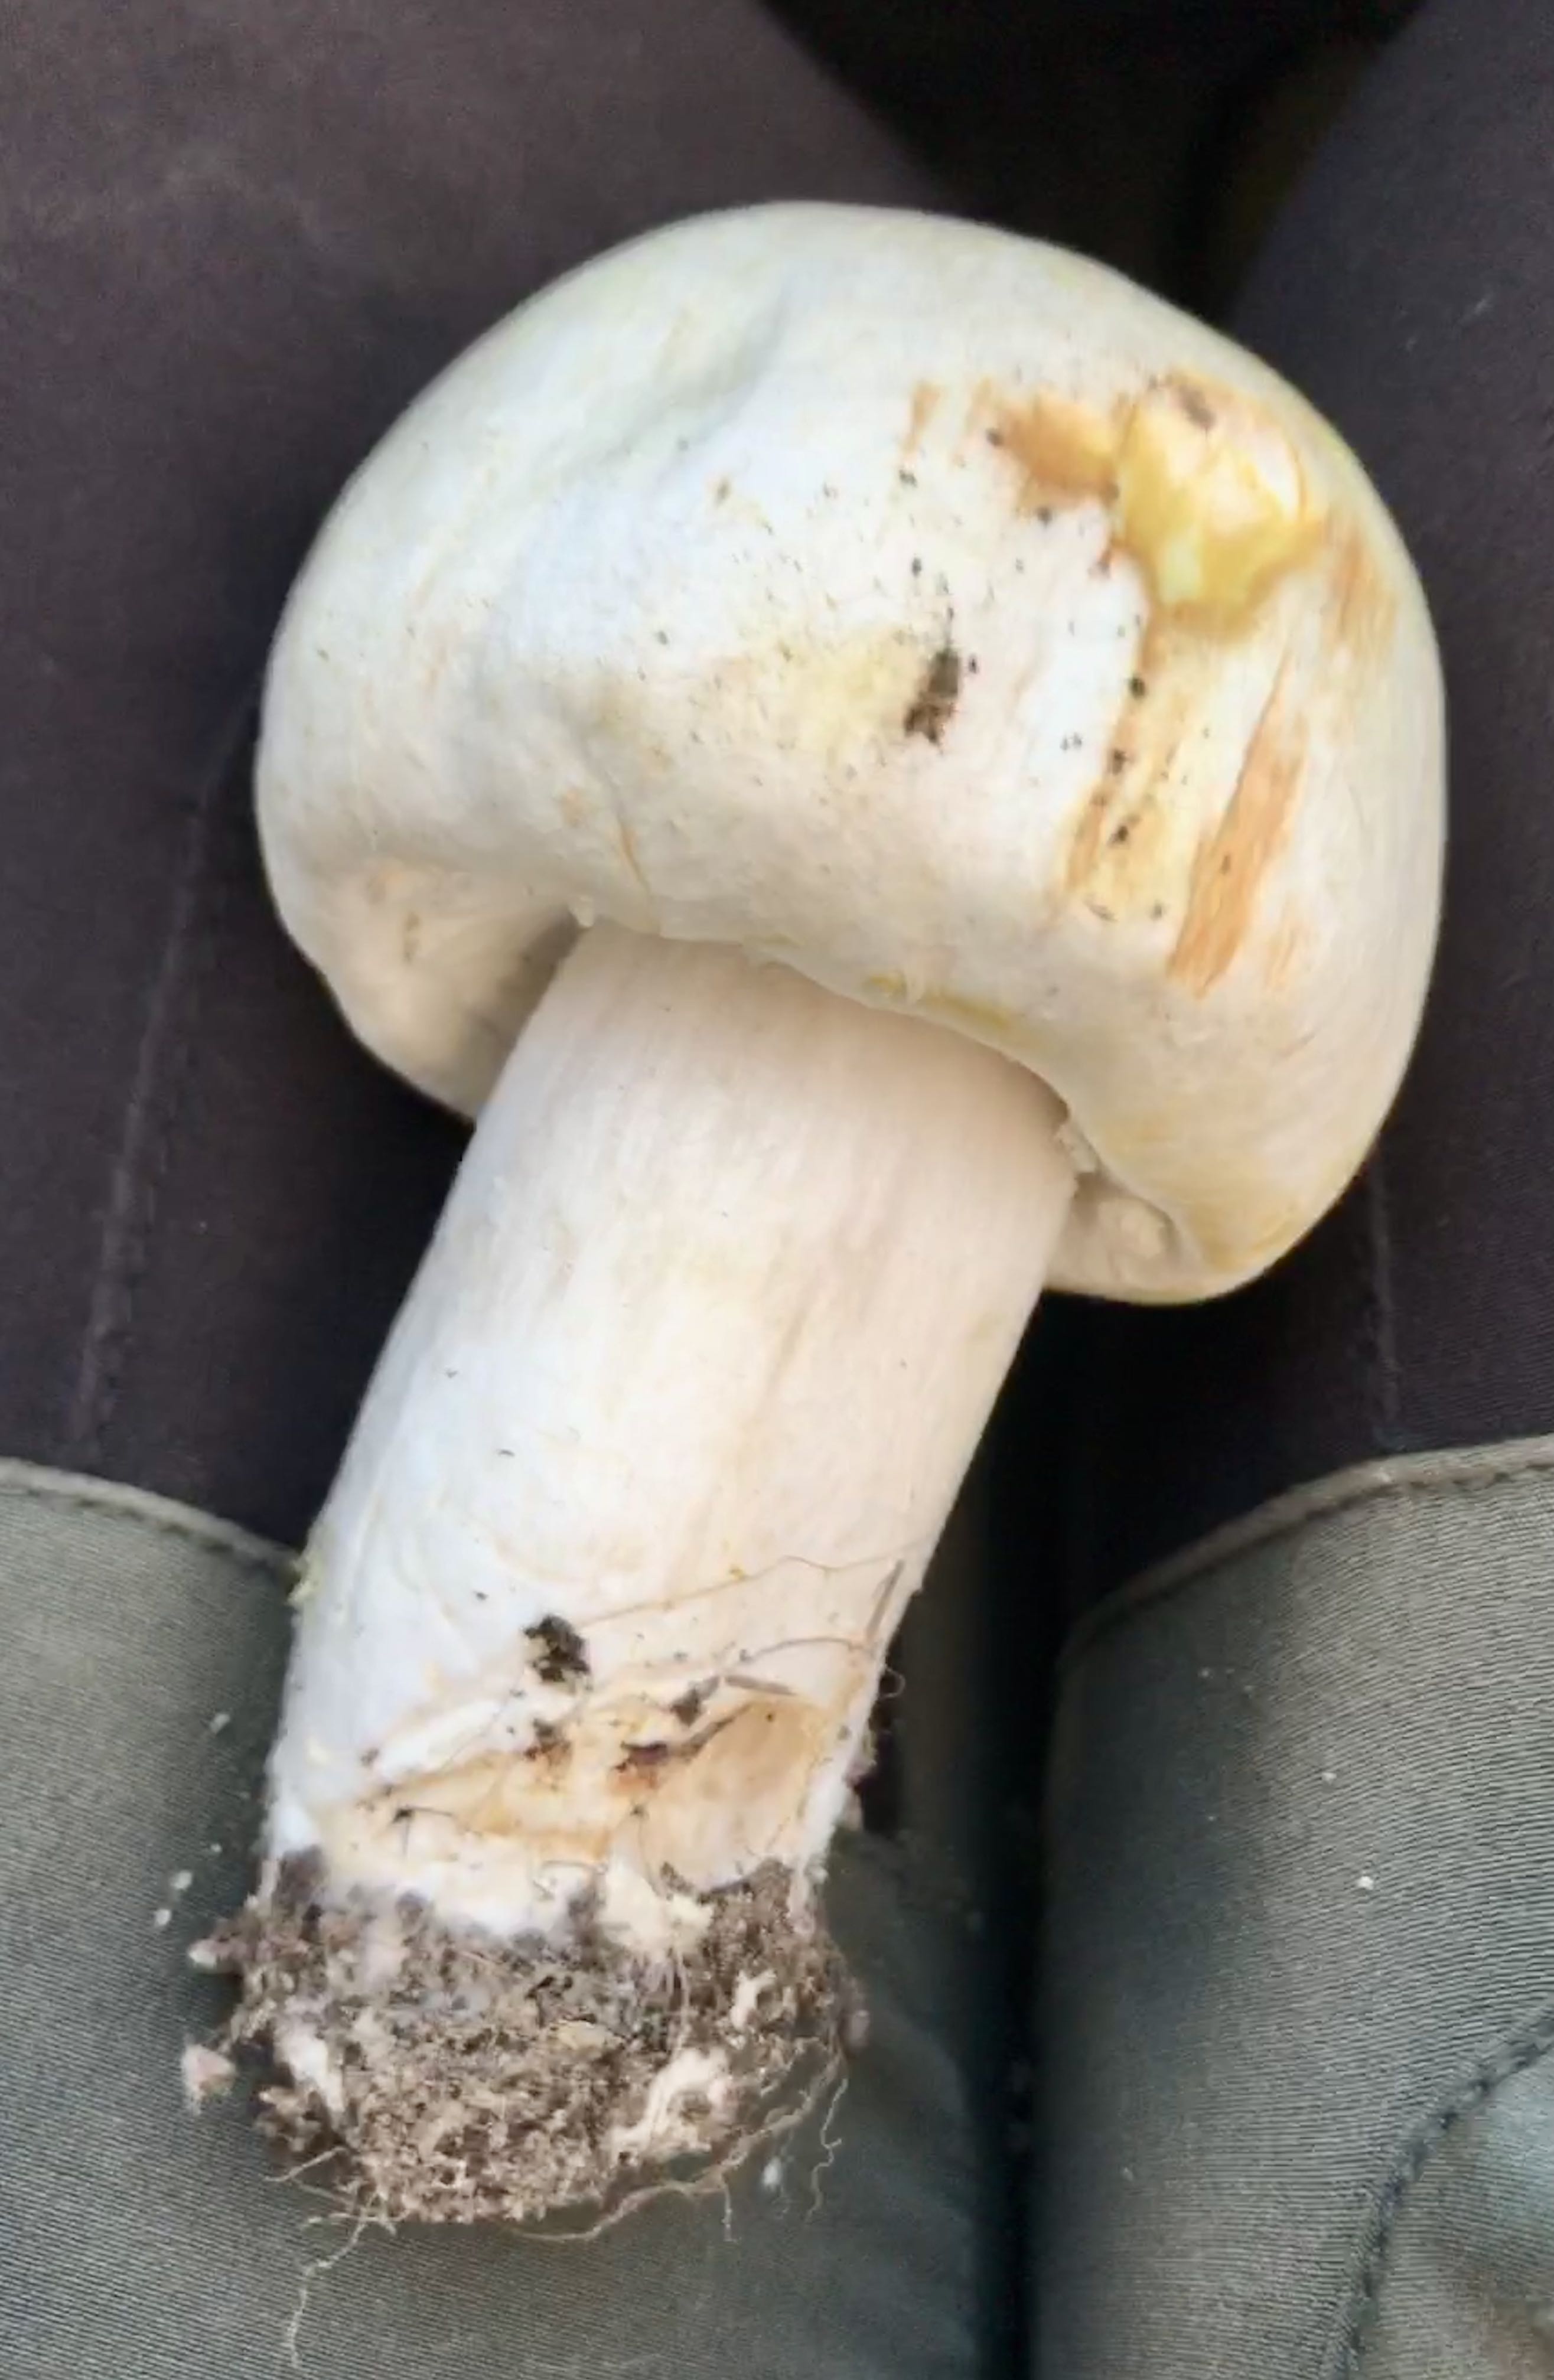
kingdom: Fungi
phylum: Basidiomycota
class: Agaricomycetes
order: Agaricales
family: Agaricaceae
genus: Agaricus
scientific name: Agaricus arvensis
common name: ager-champignon
